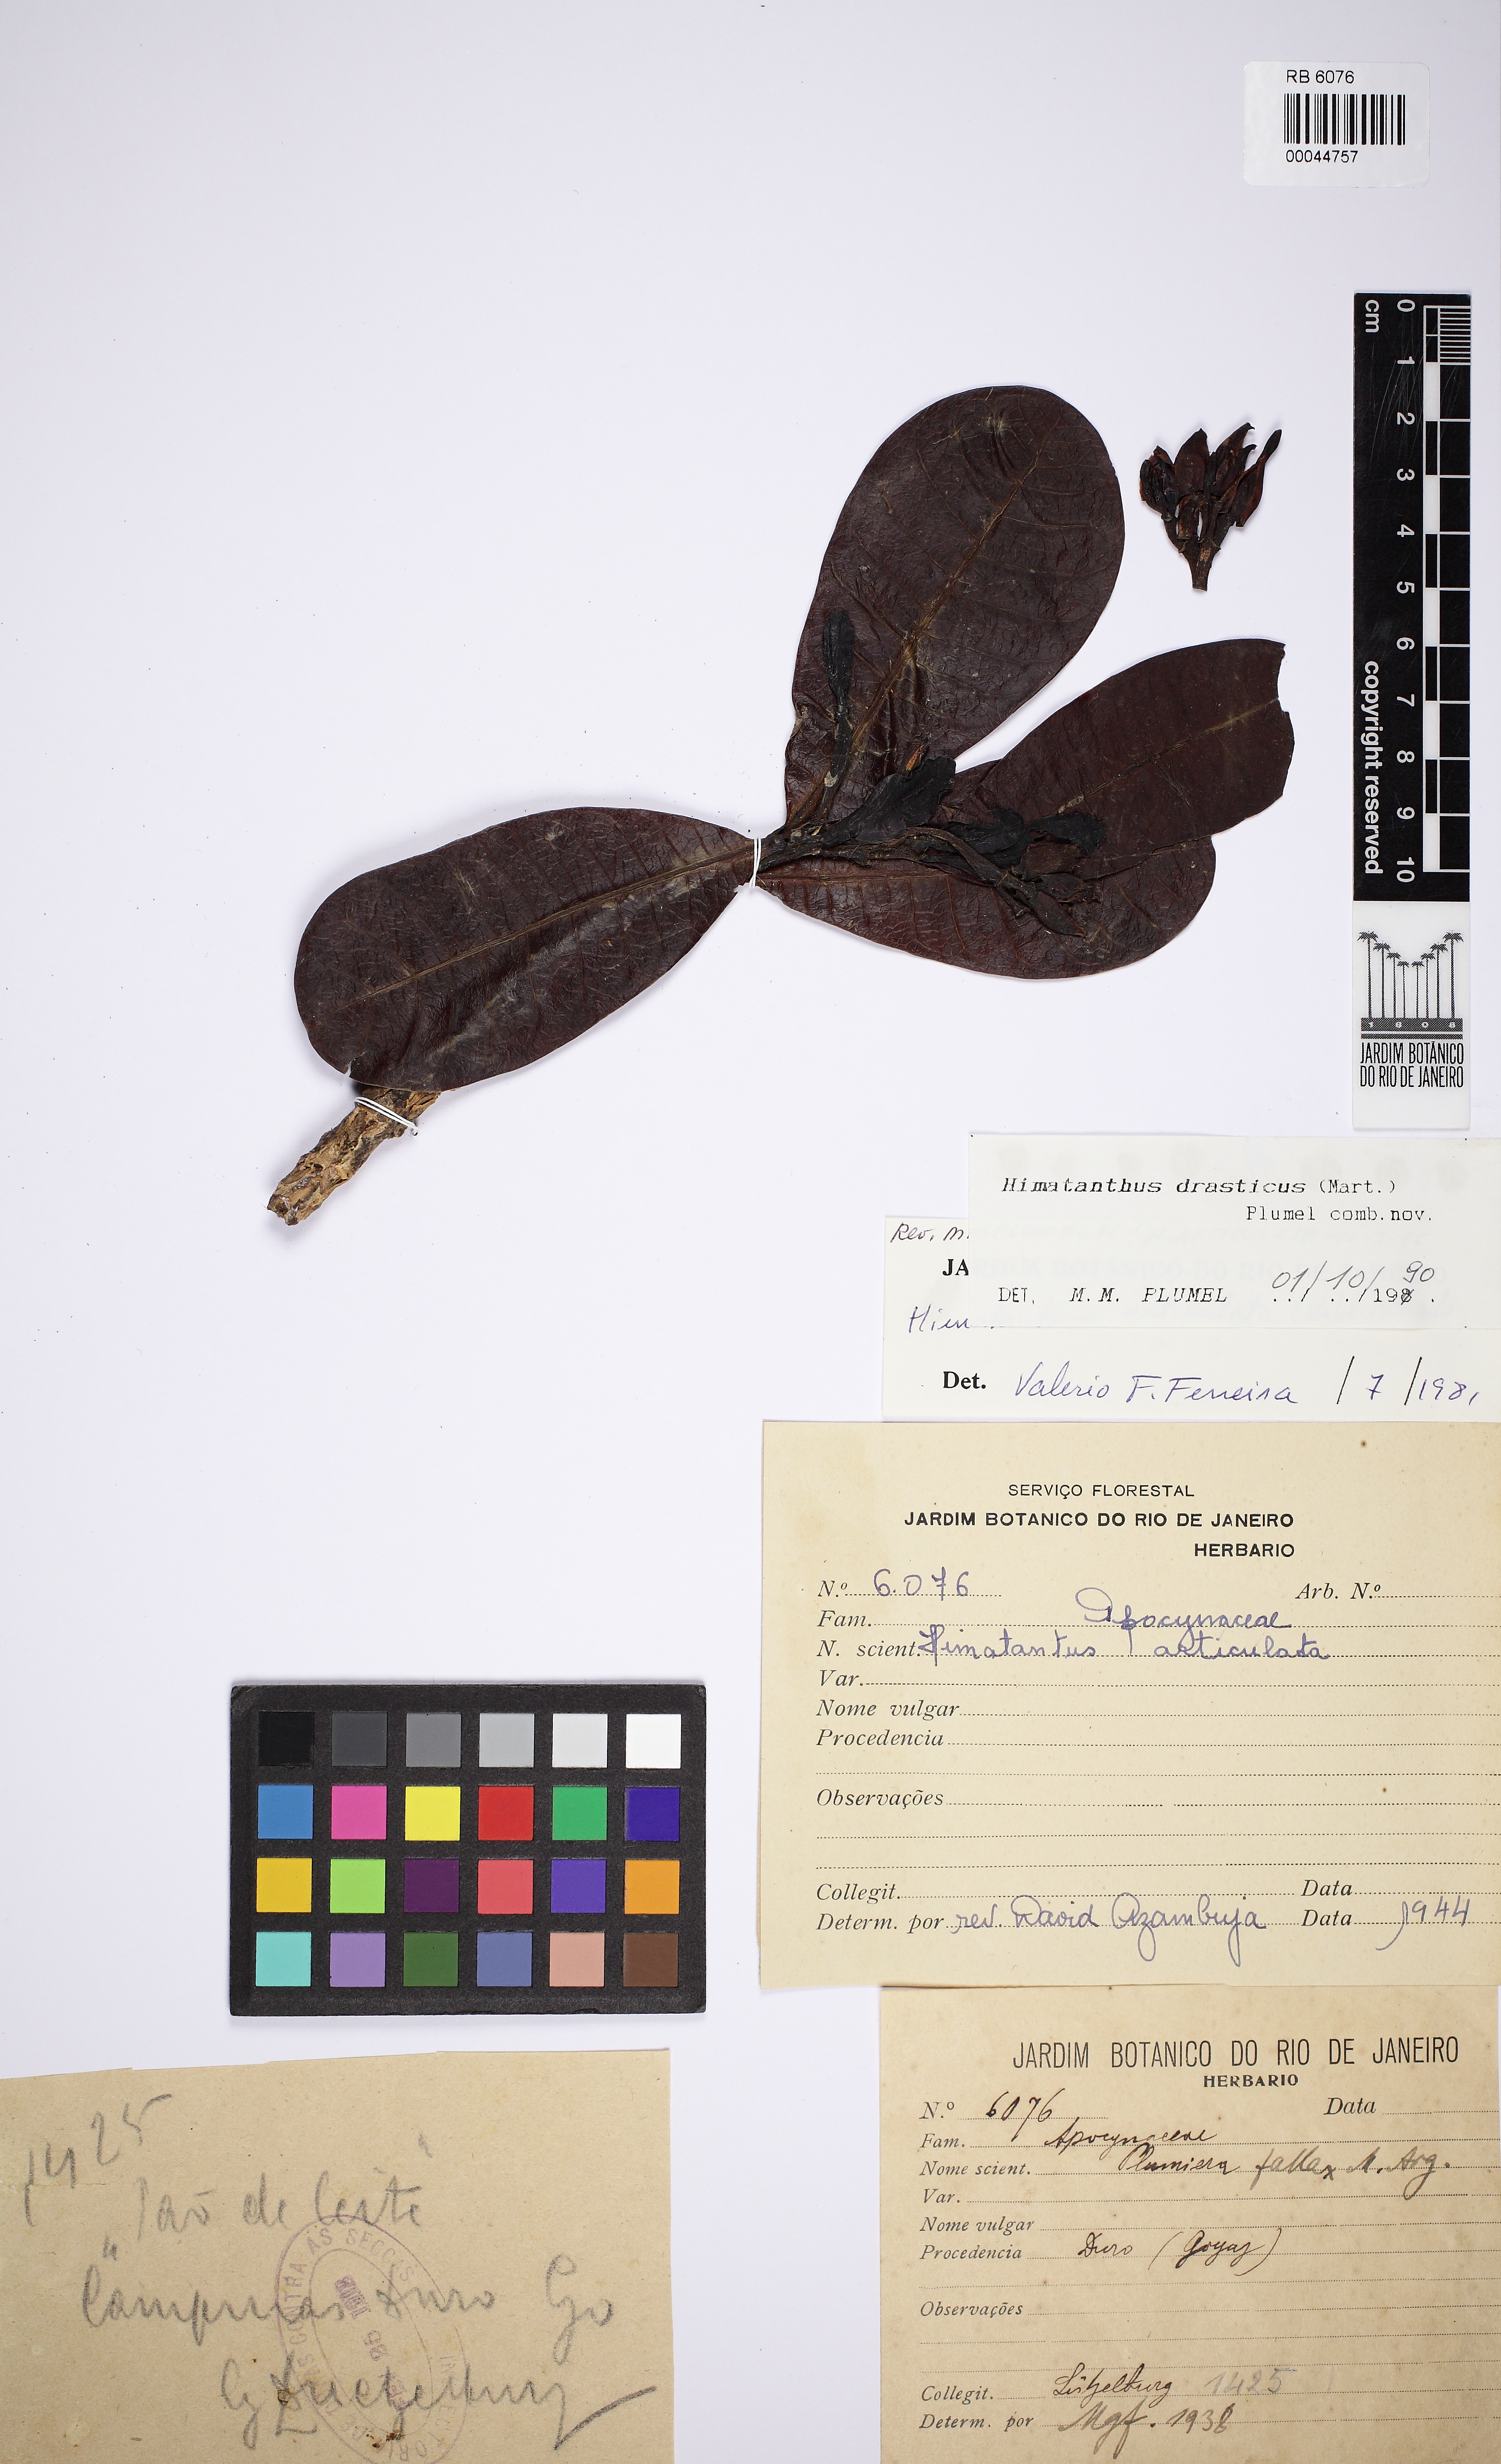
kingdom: Plantae
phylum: Tracheophyta
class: Magnoliopsida
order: Gentianales
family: Apocynaceae
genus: Himatanthus
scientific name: Himatanthus drasticus
